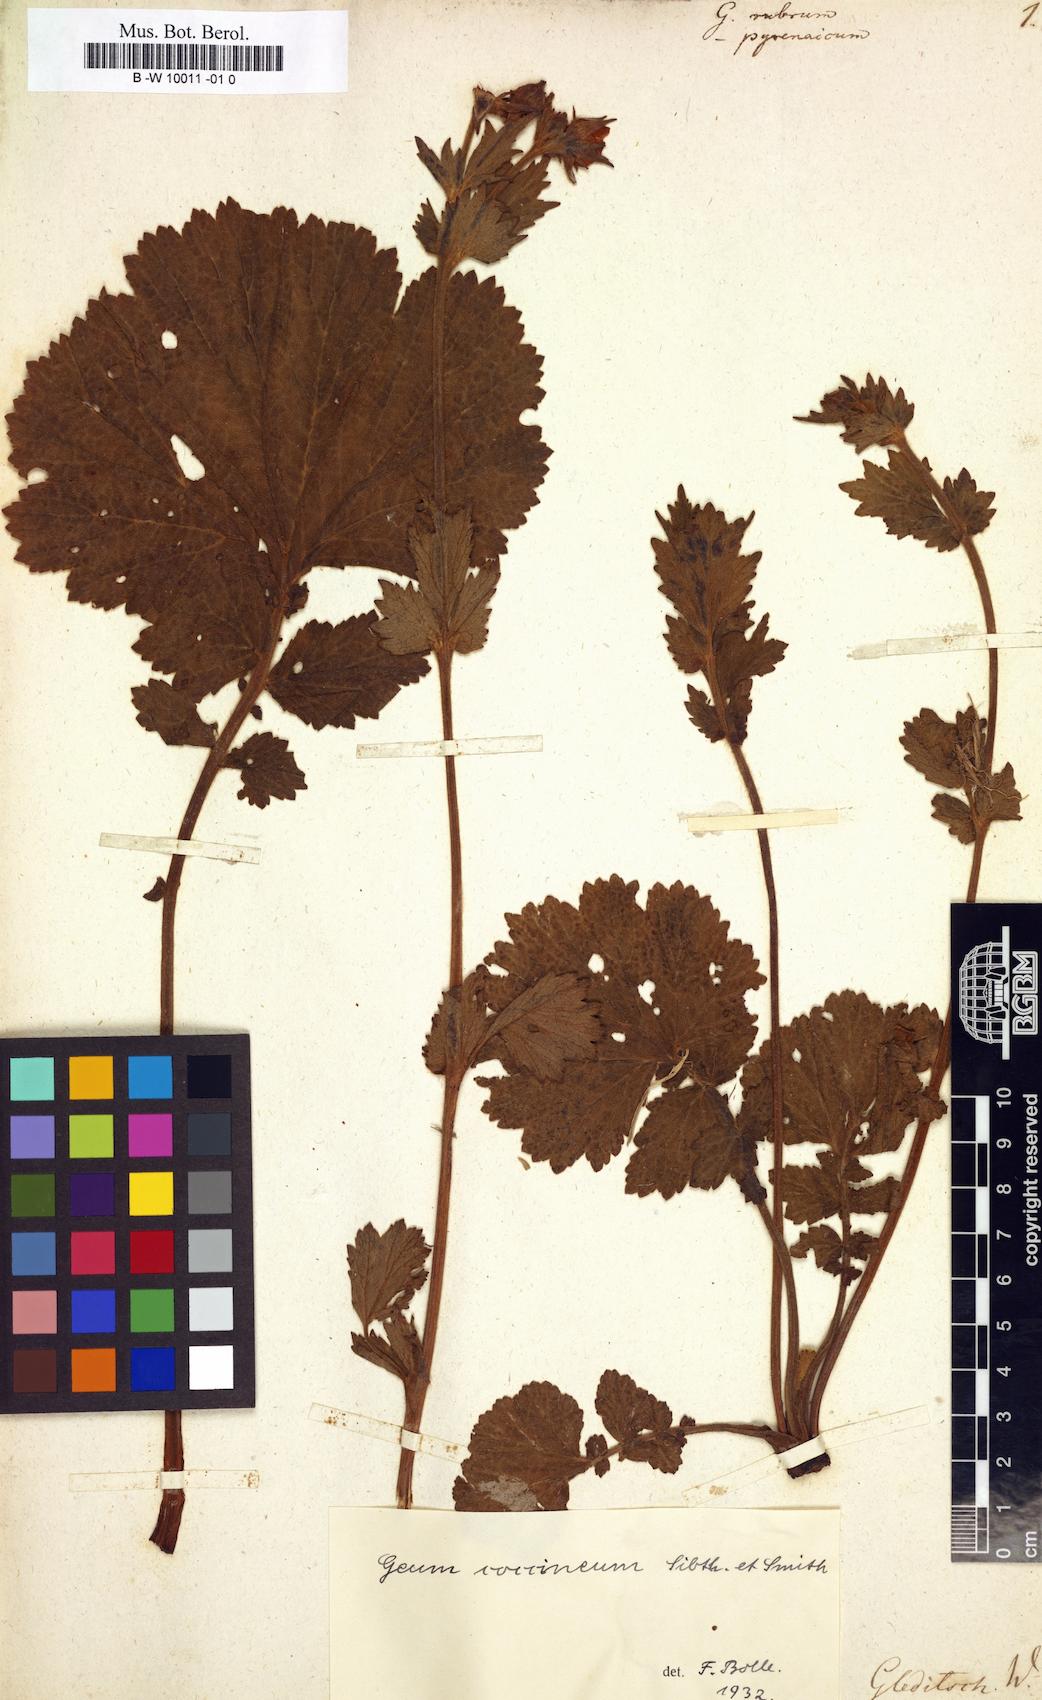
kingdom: Plantae
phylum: Tracheophyta
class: Magnoliopsida
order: Rosales
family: Rosaceae
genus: Geum
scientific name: Geum rubrum
